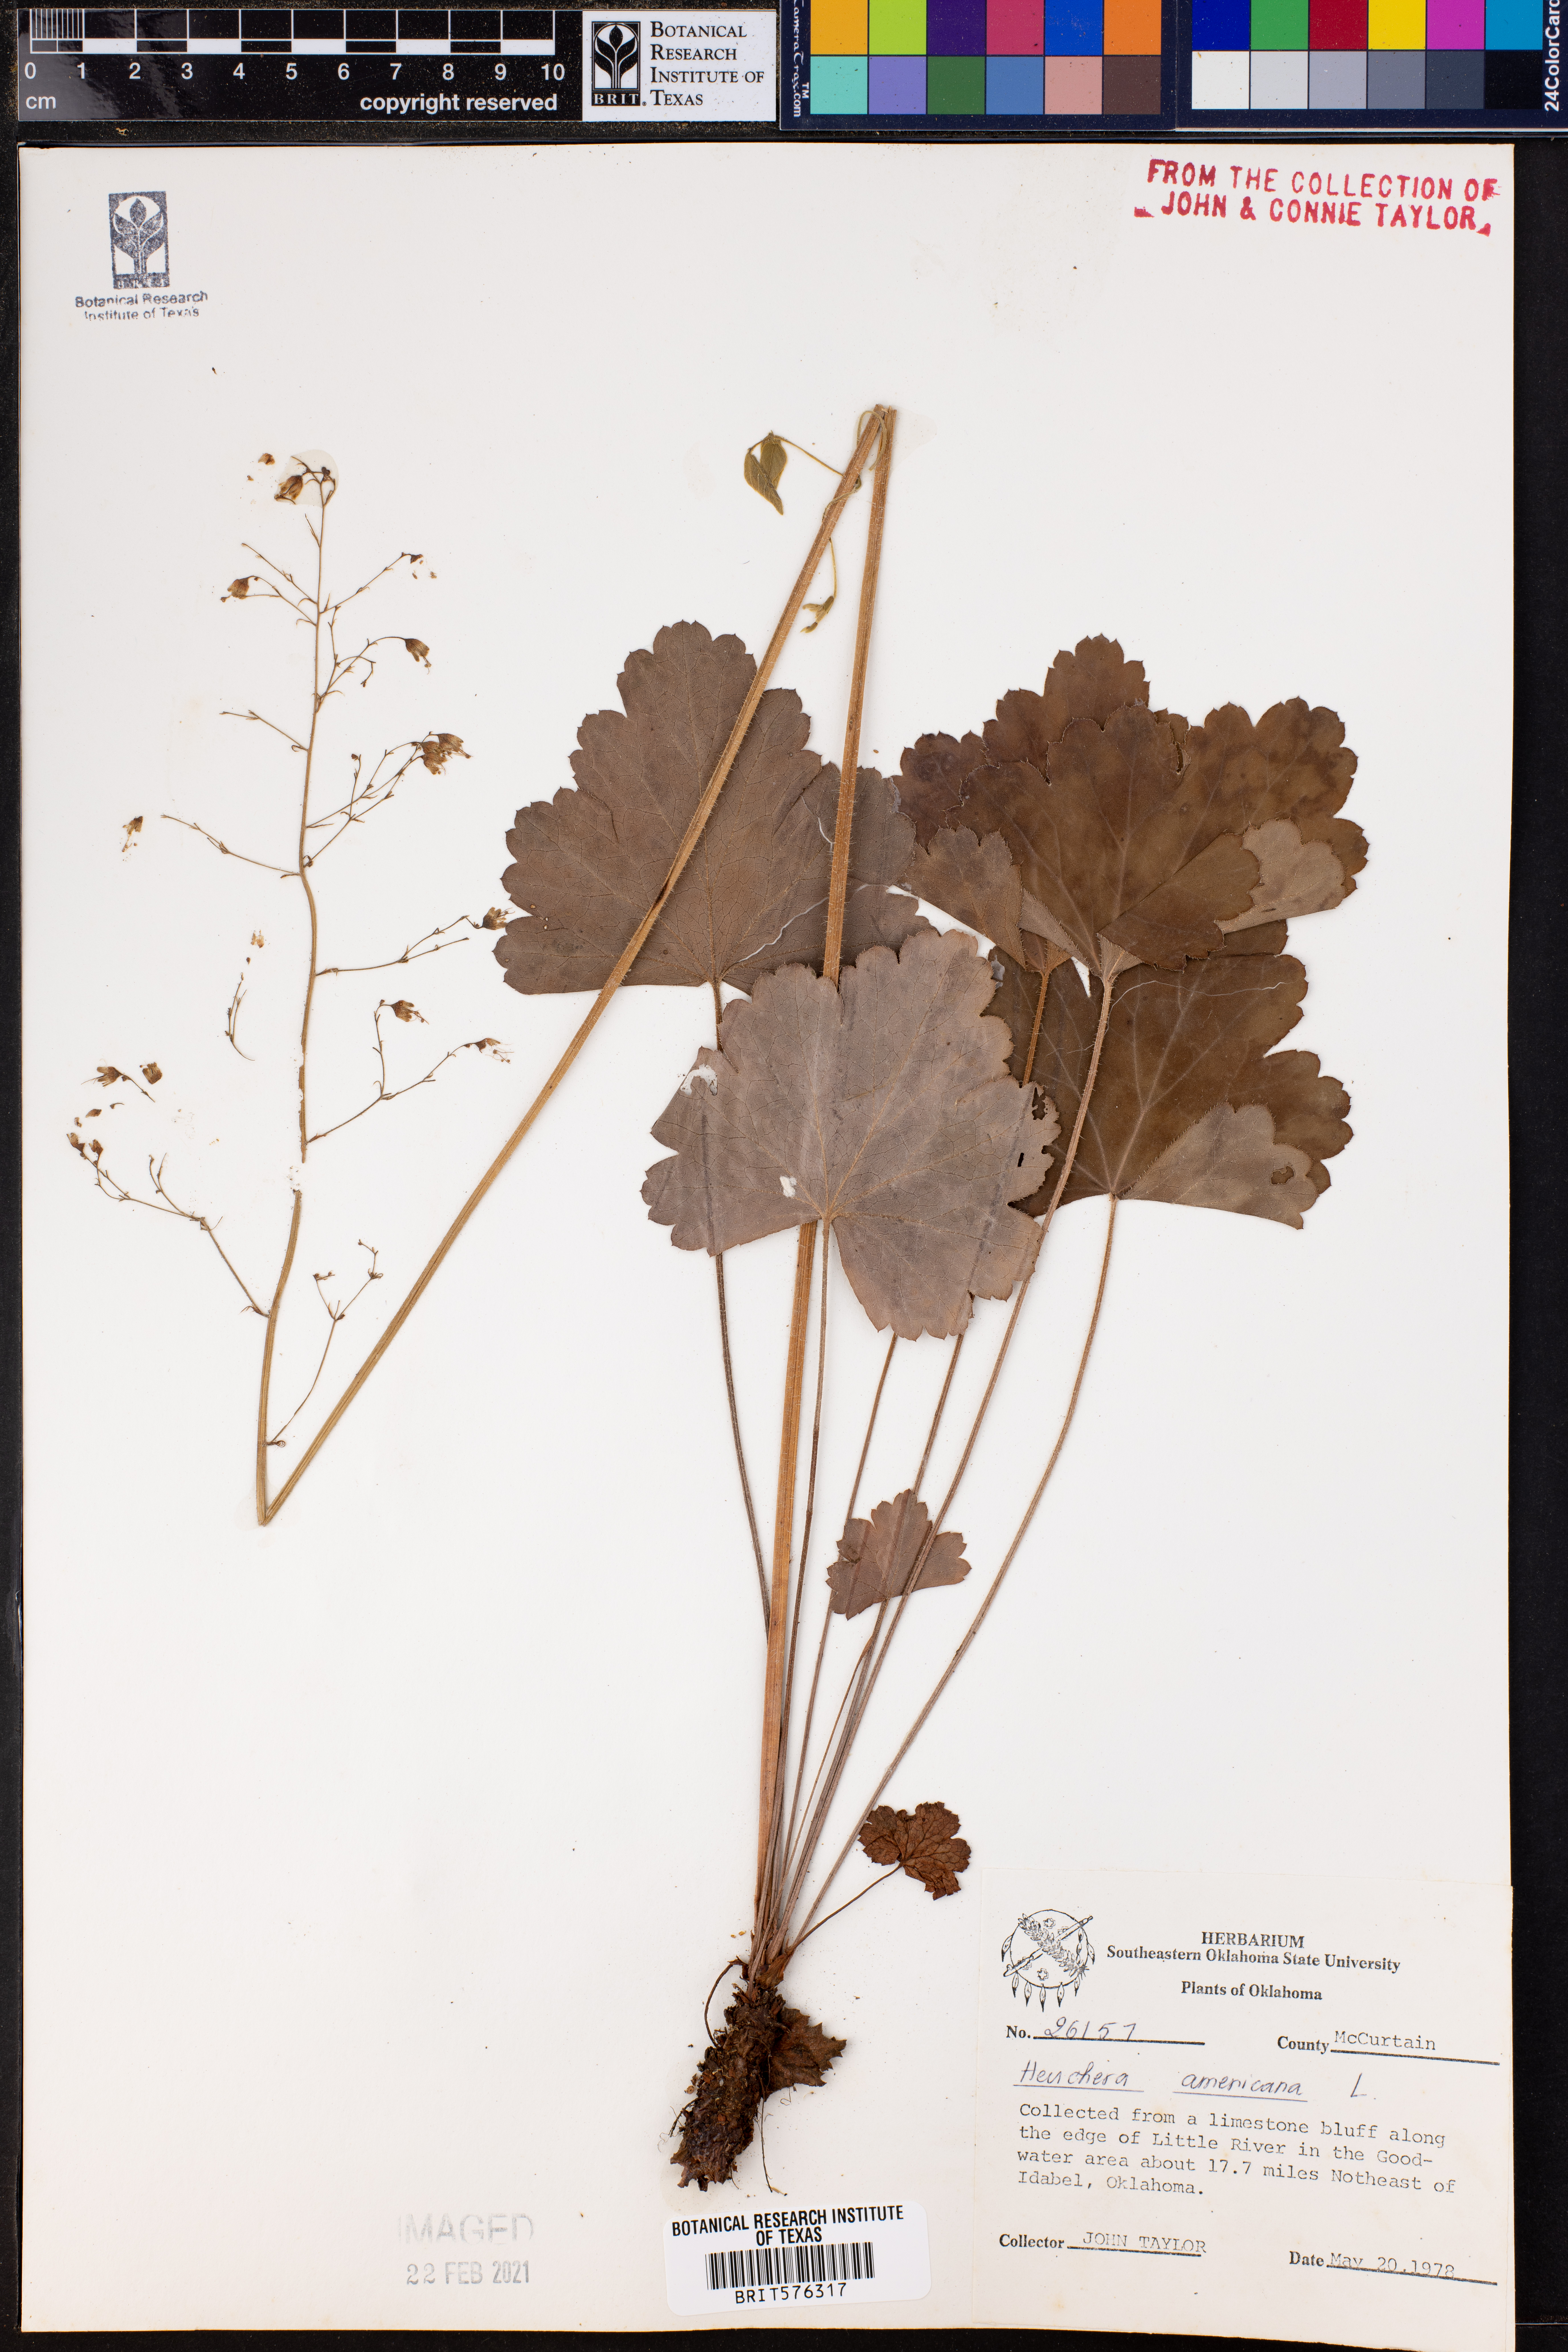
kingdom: Plantae
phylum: Tracheophyta
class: Magnoliopsida
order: Saxifragales
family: Saxifragaceae
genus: Heuchera
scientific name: Heuchera americana
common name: Alumroot
